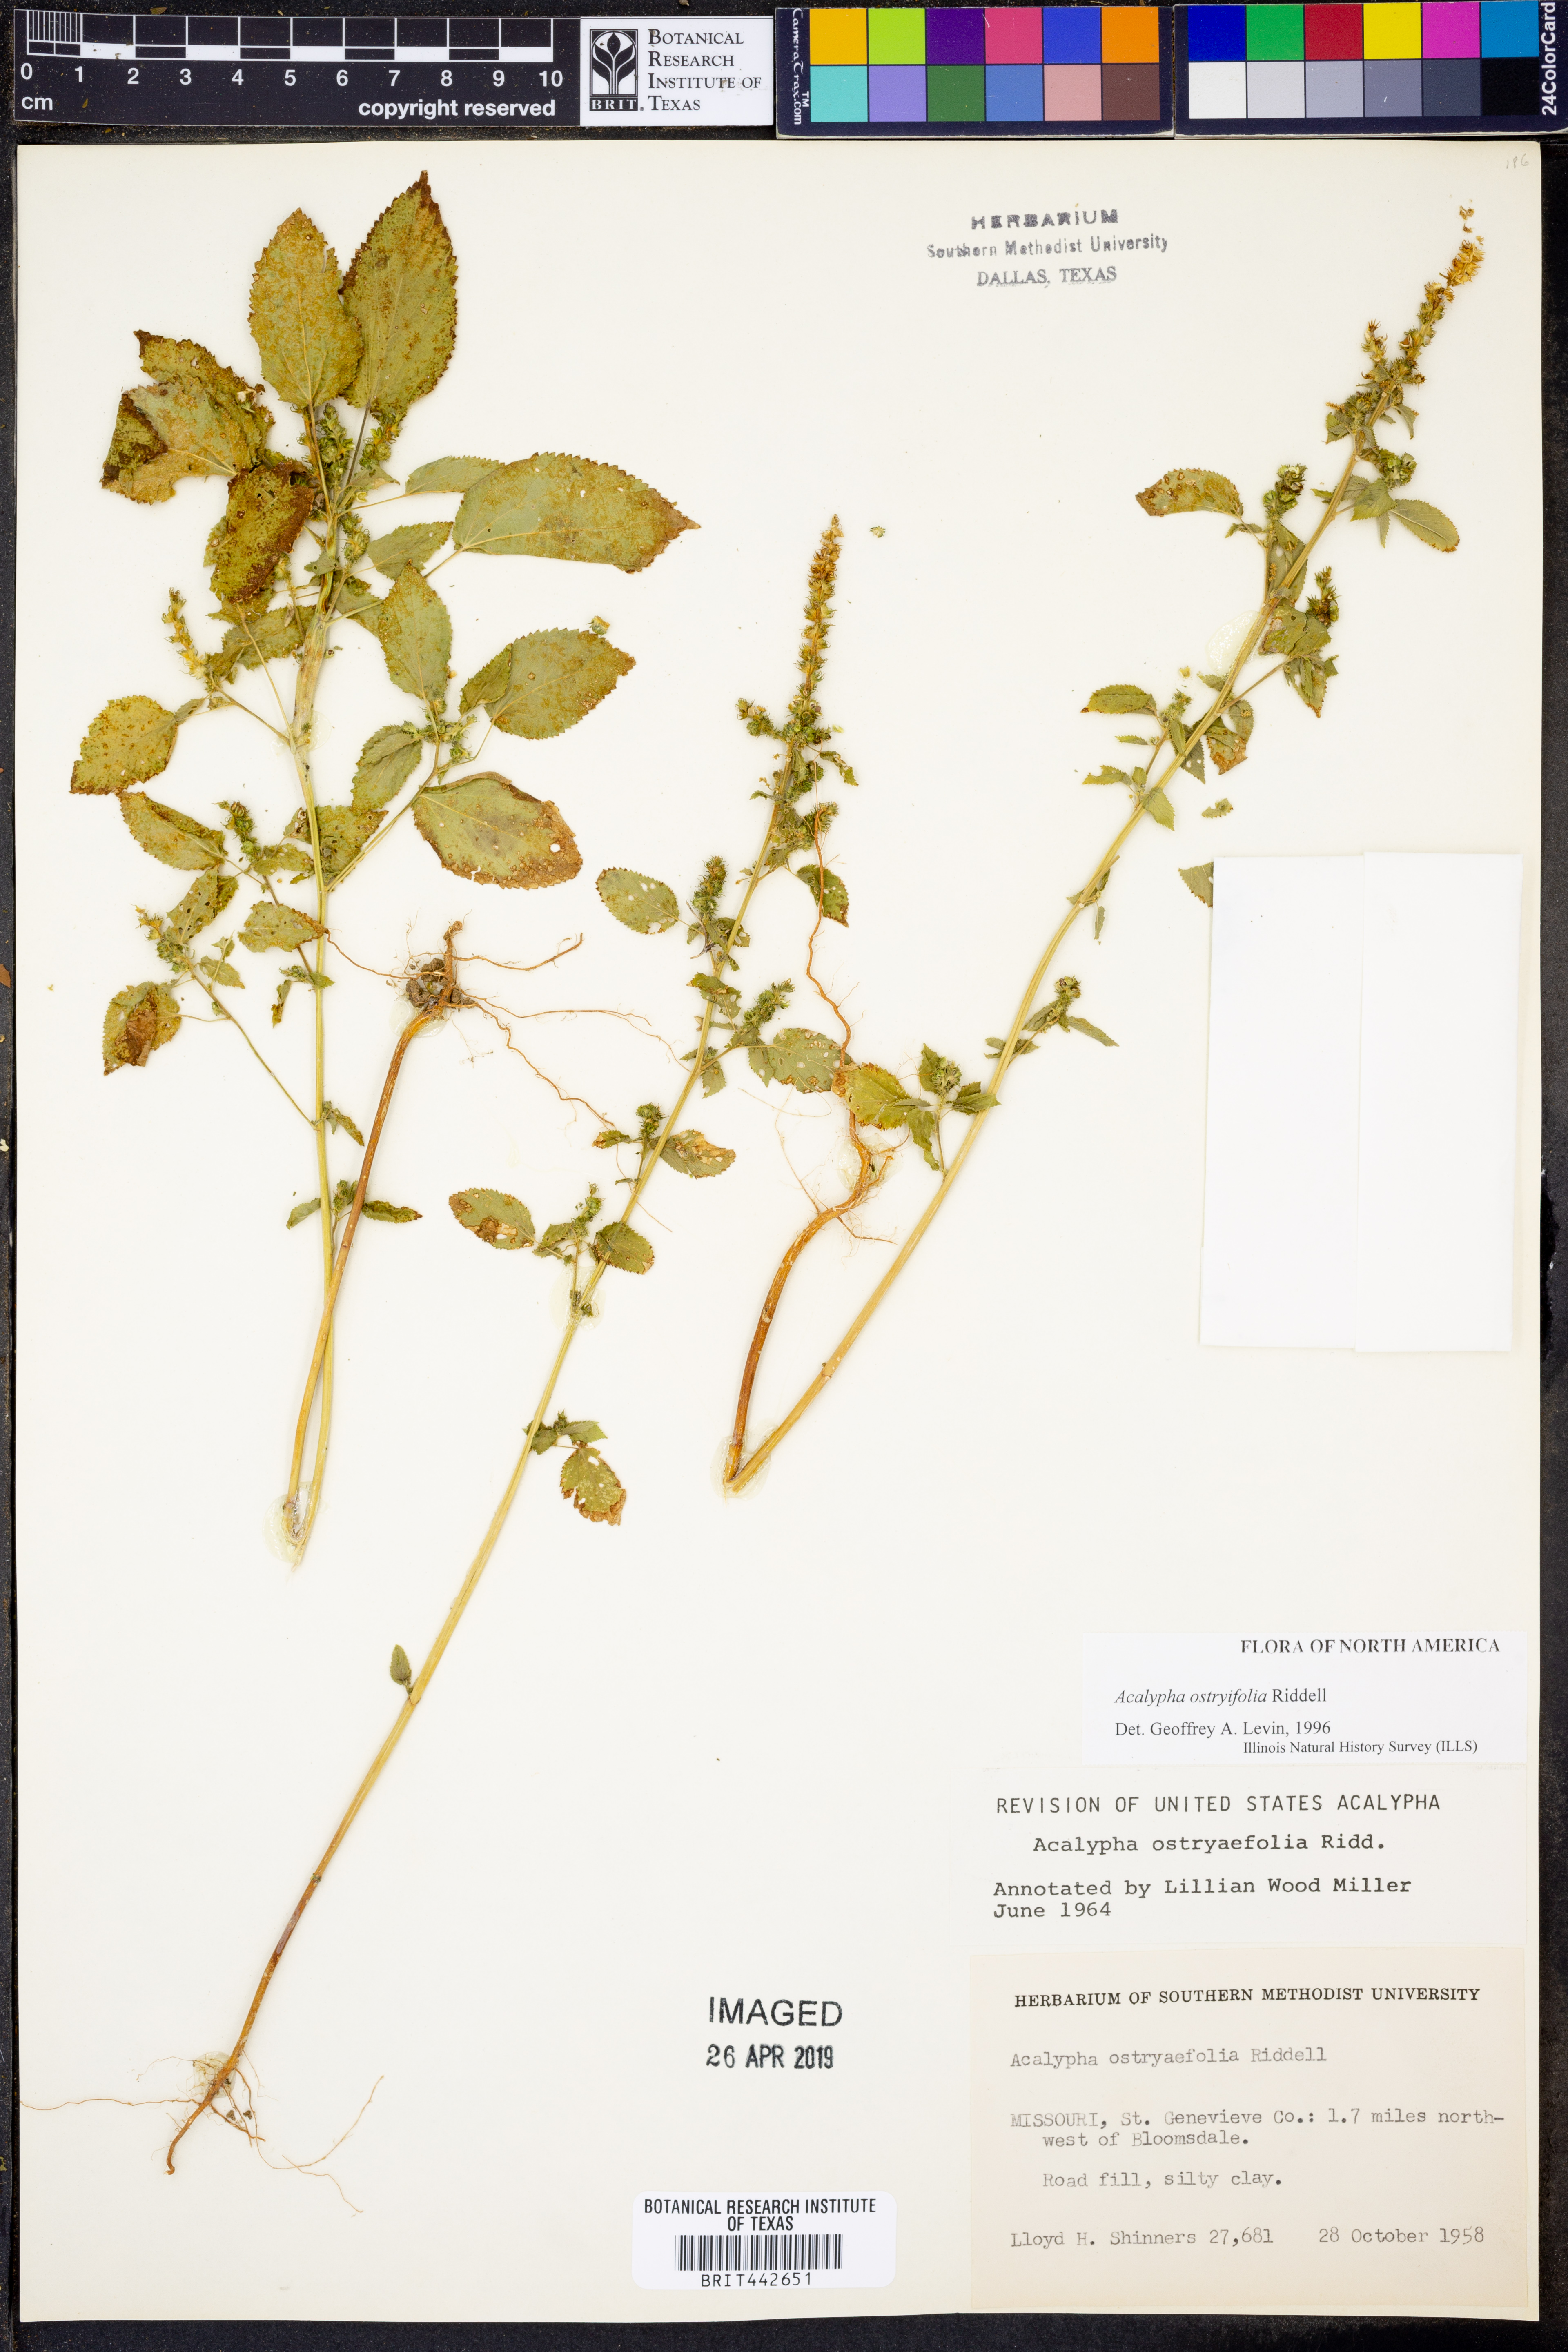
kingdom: Plantae
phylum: Tracheophyta
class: Magnoliopsida
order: Malpighiales
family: Euphorbiaceae
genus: Acalypha
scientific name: Acalypha persimilis
